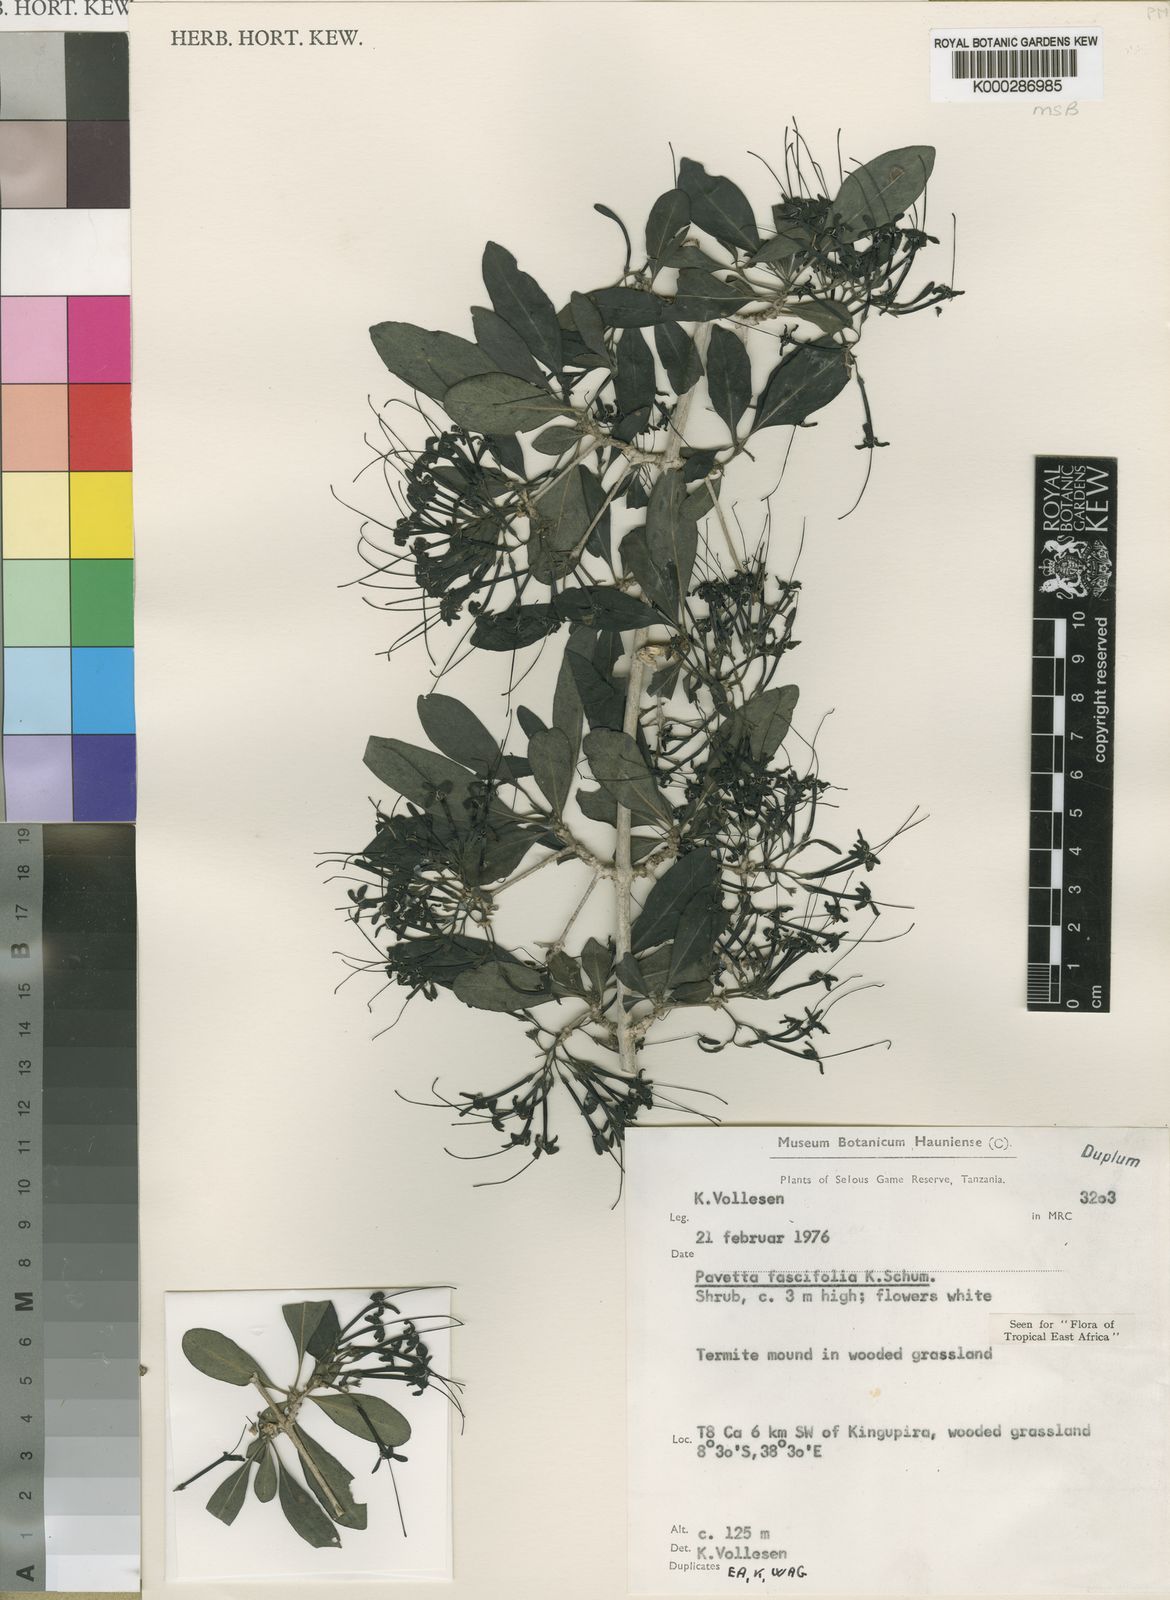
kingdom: Plantae
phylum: Tracheophyta
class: Magnoliopsida
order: Gentianales
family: Rubiaceae
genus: Pavetta
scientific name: Pavetta fascifolia
